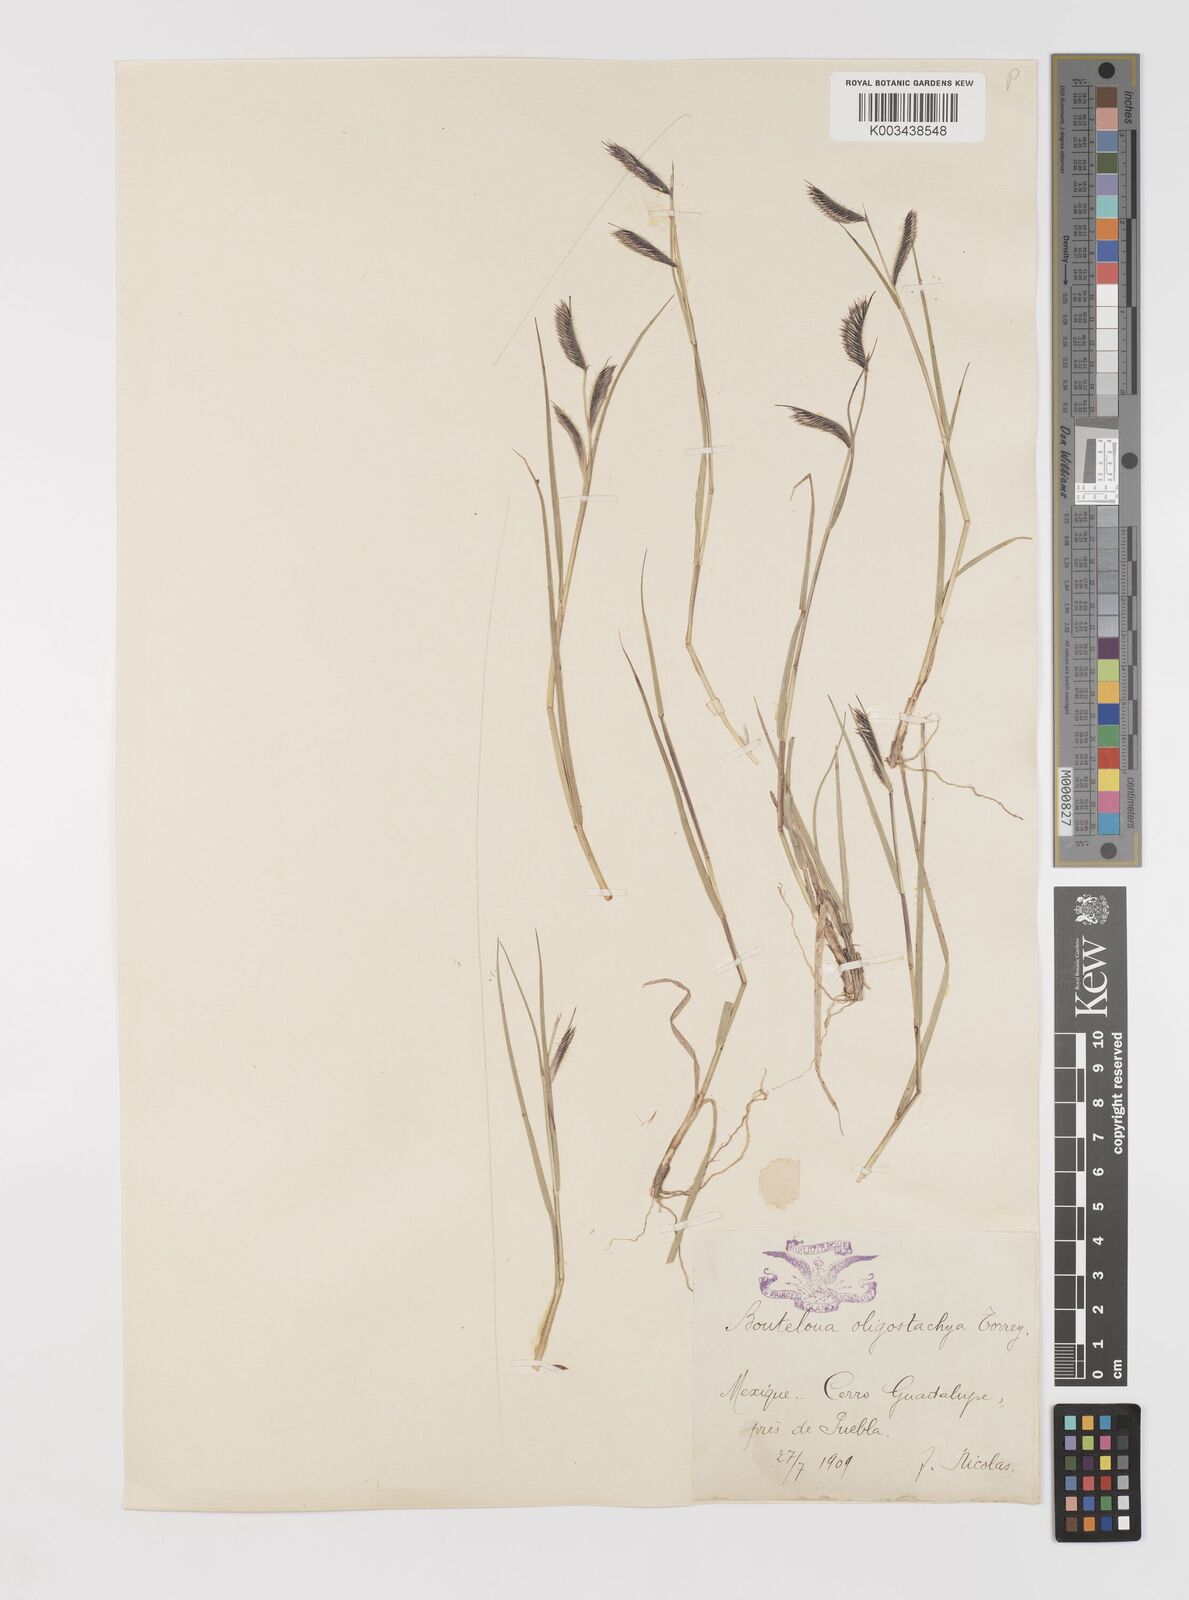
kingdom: Plantae
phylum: Tracheophyta
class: Liliopsida
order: Poales
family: Poaceae
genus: Bouteloua
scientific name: Bouteloua gracilis
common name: Blue grama
